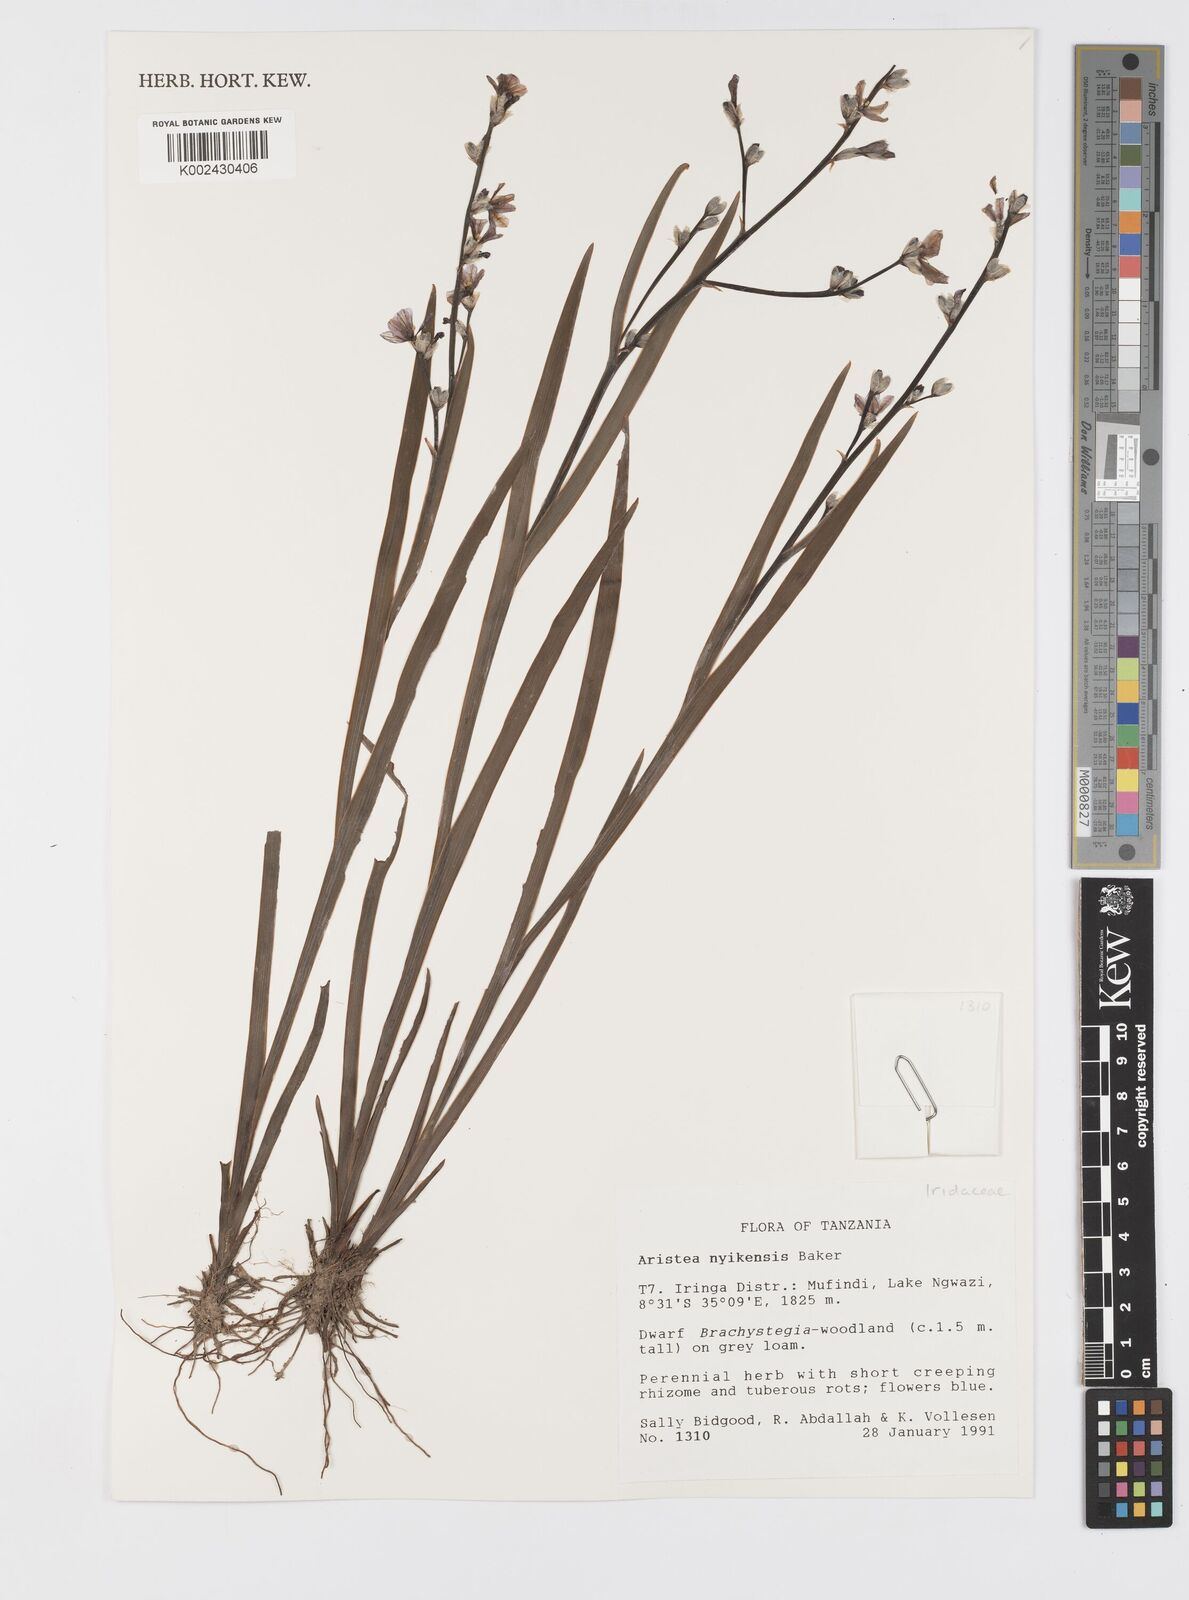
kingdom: Plantae
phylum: Tracheophyta
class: Liliopsida
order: Asparagales
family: Iridaceae
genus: Aristea
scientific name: Aristea nyikensis
